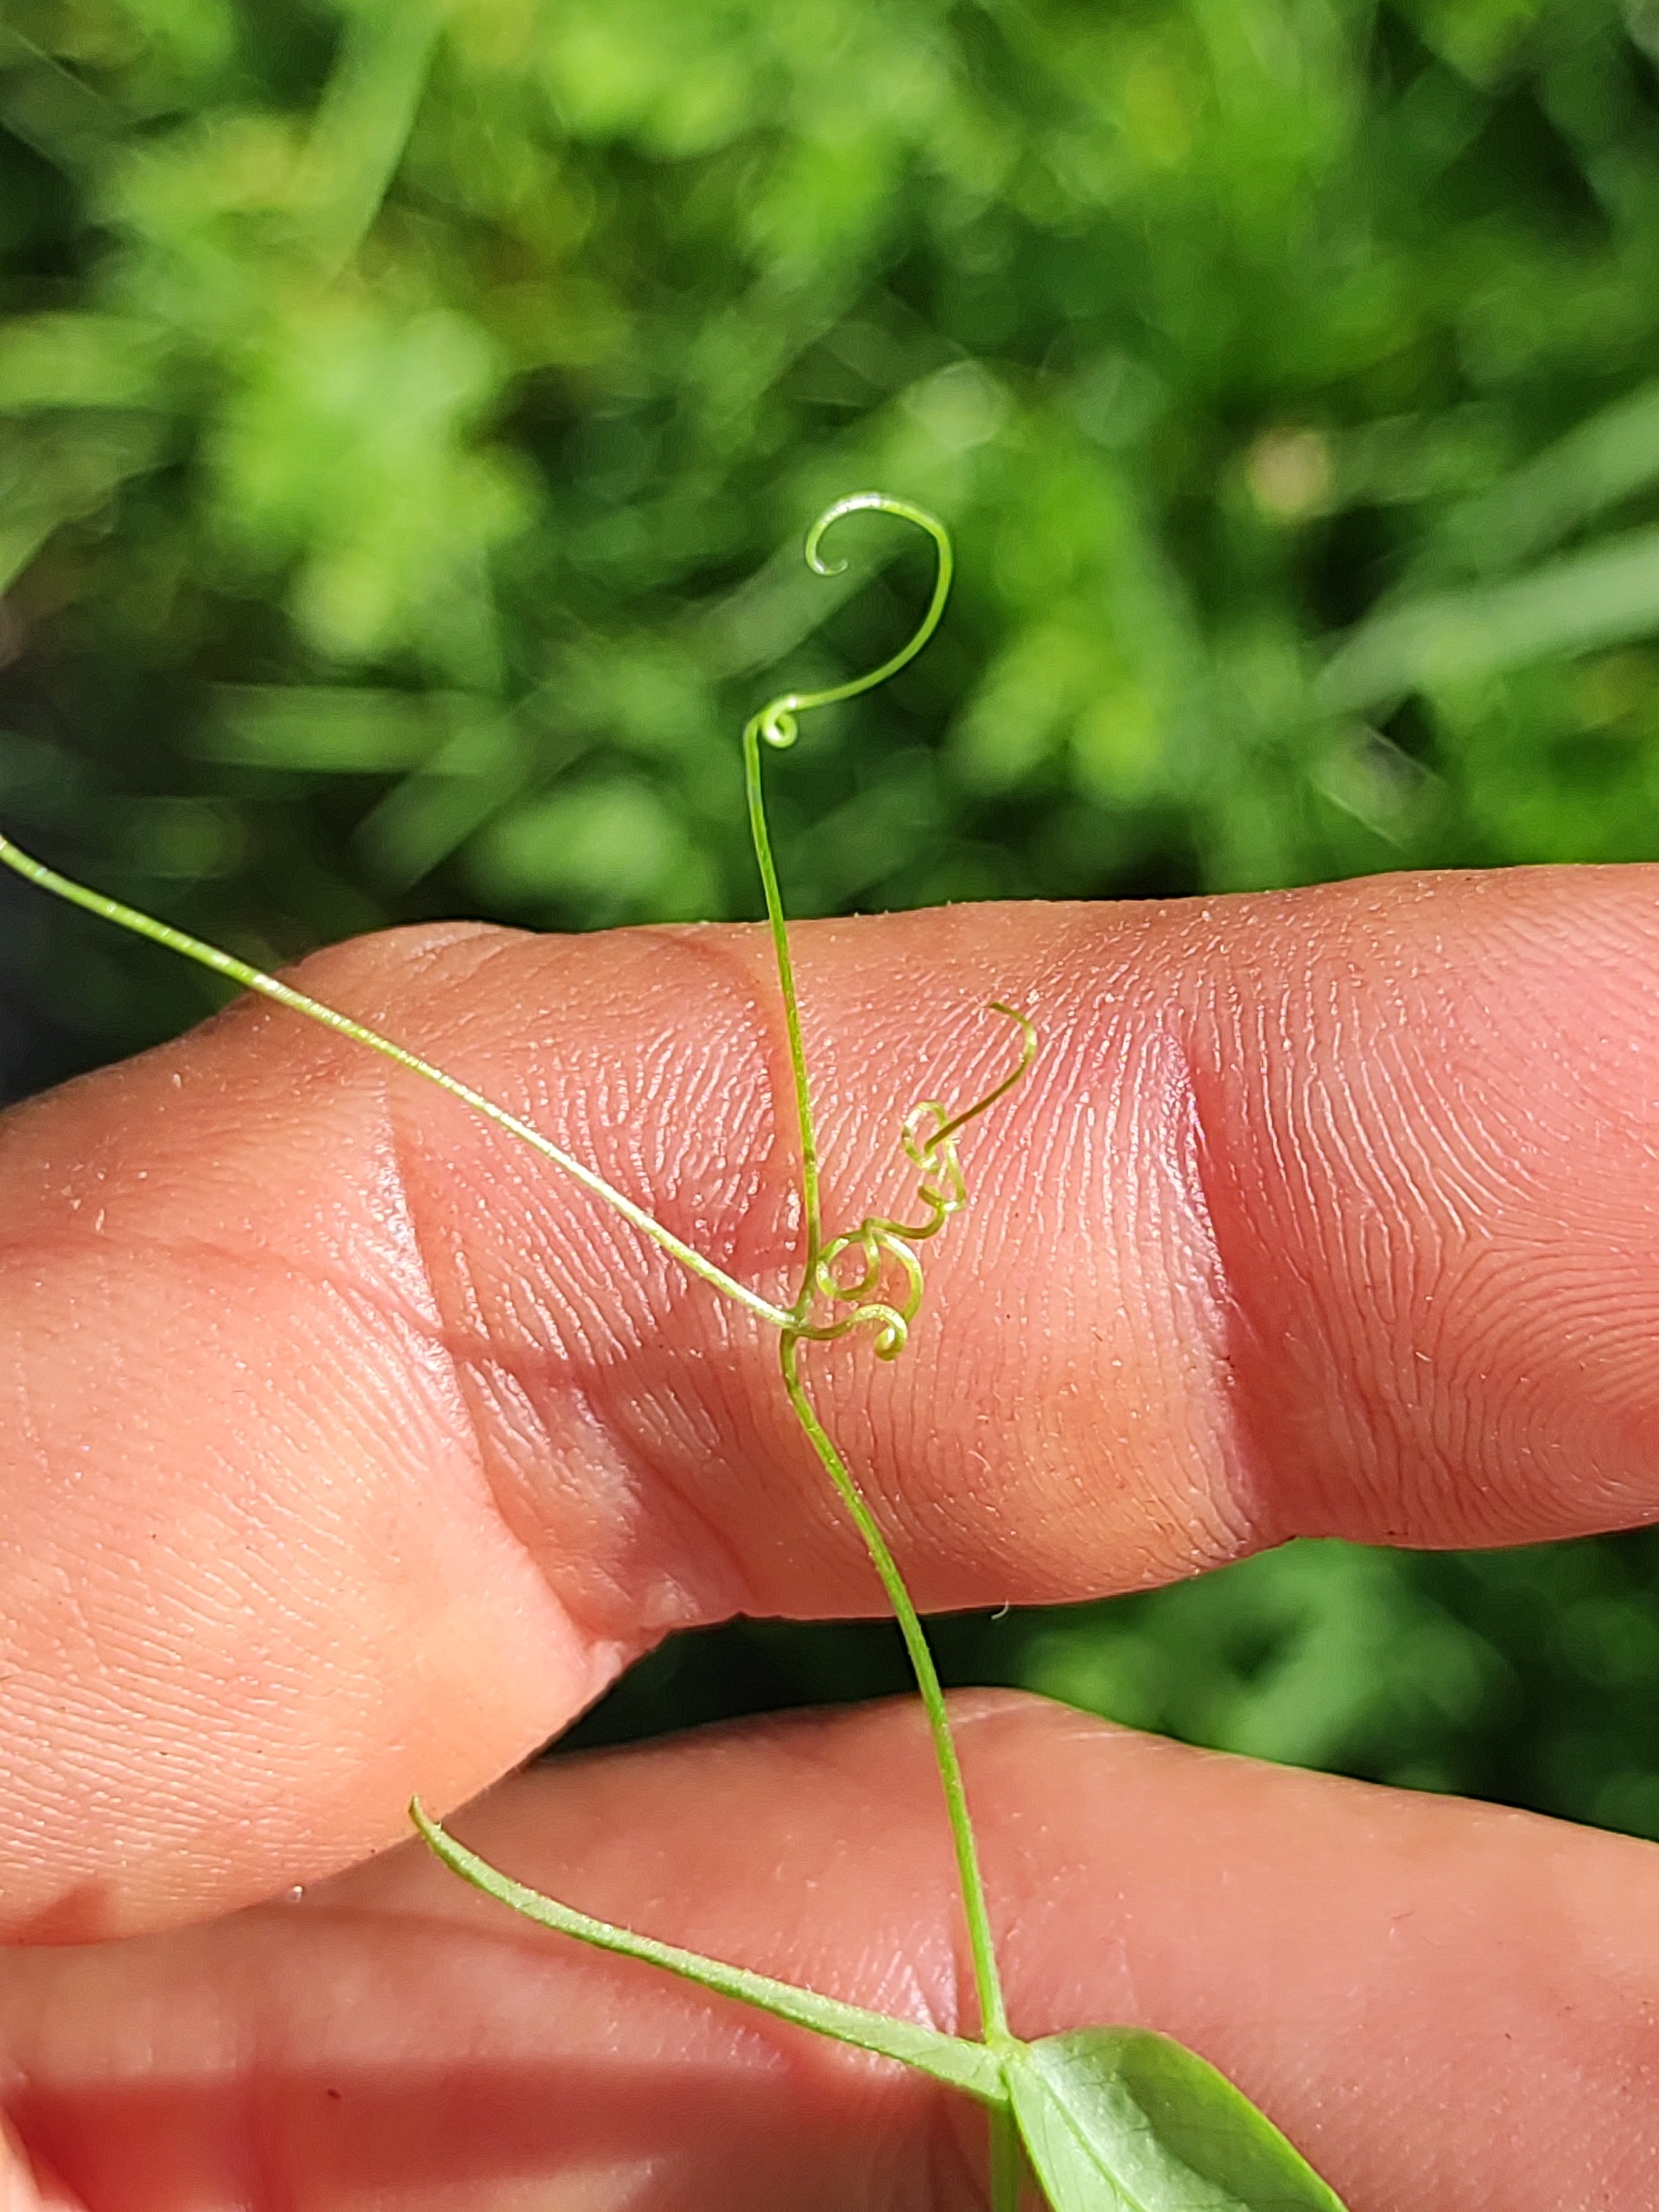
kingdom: Plantae
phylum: Tracheophyta
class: Magnoliopsida
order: Fabales
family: Fabaceae
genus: Vicia
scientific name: Vicia sepium
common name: Gærde-vikke
